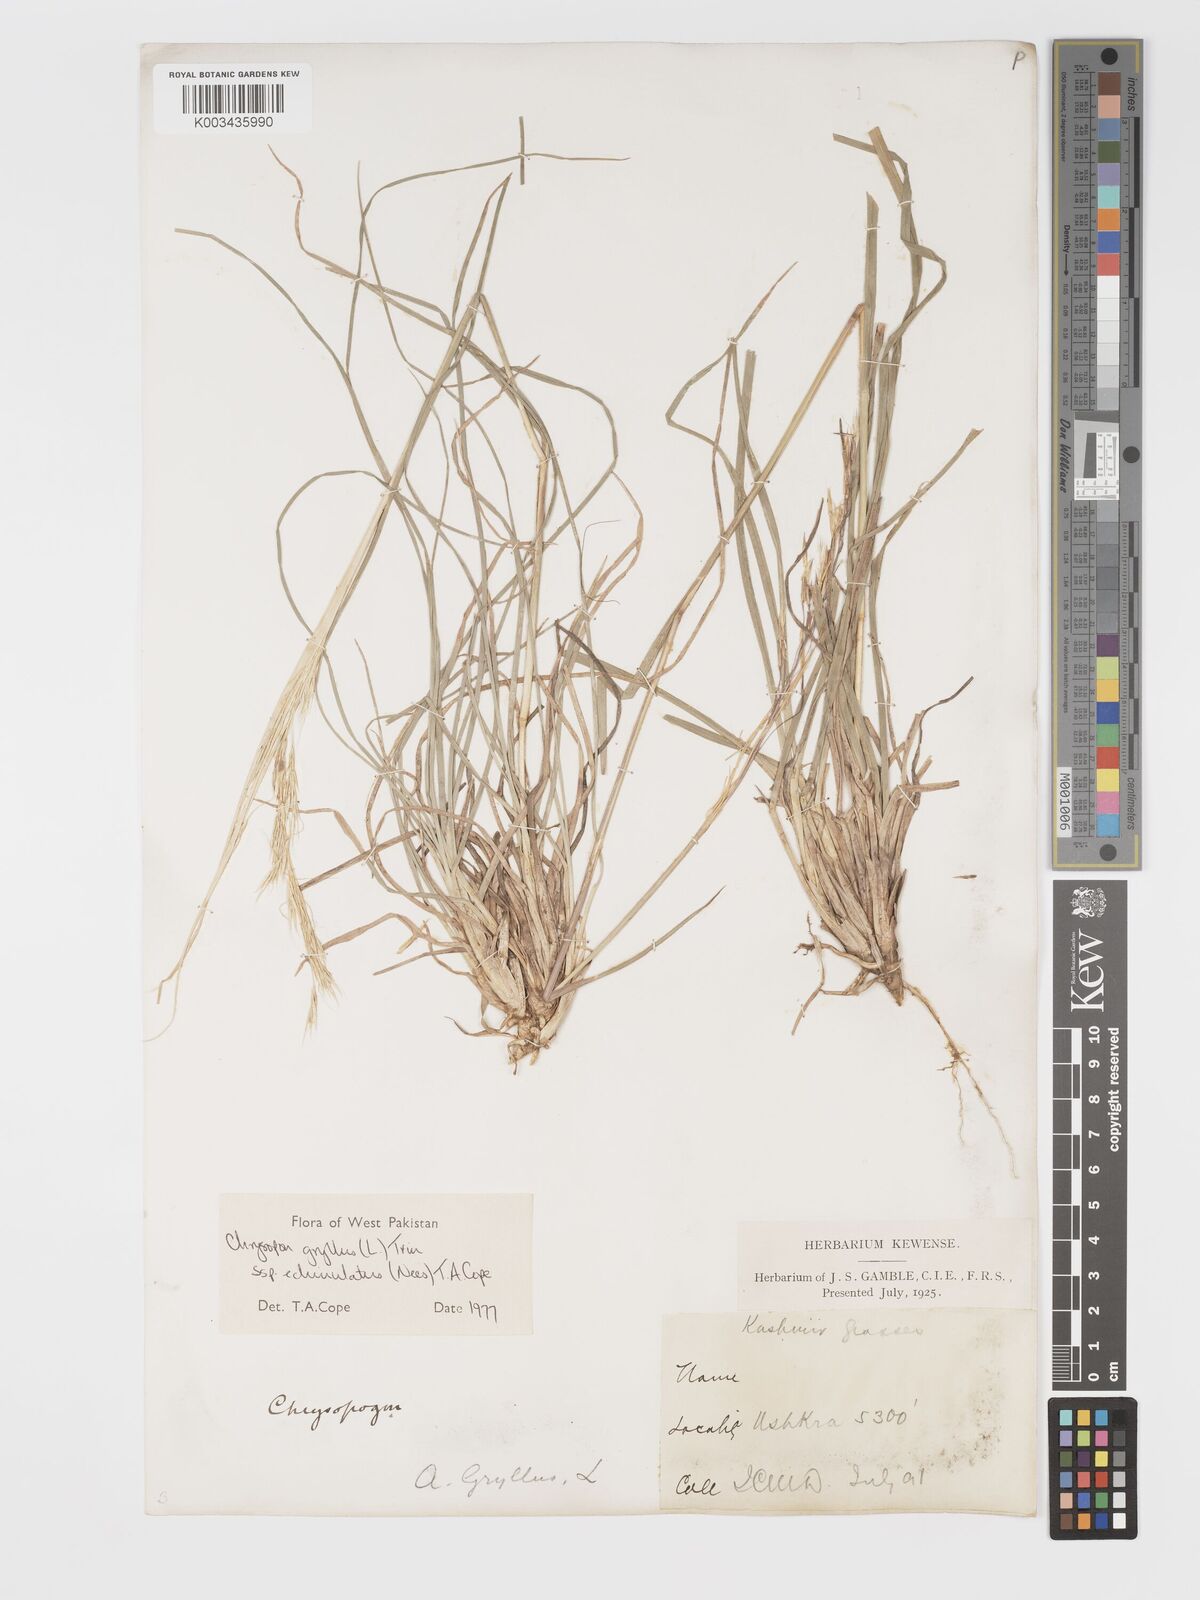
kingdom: Plantae
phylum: Tracheophyta
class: Liliopsida
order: Poales
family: Poaceae
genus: Chrysopogon
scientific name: Chrysopogon gryllus
